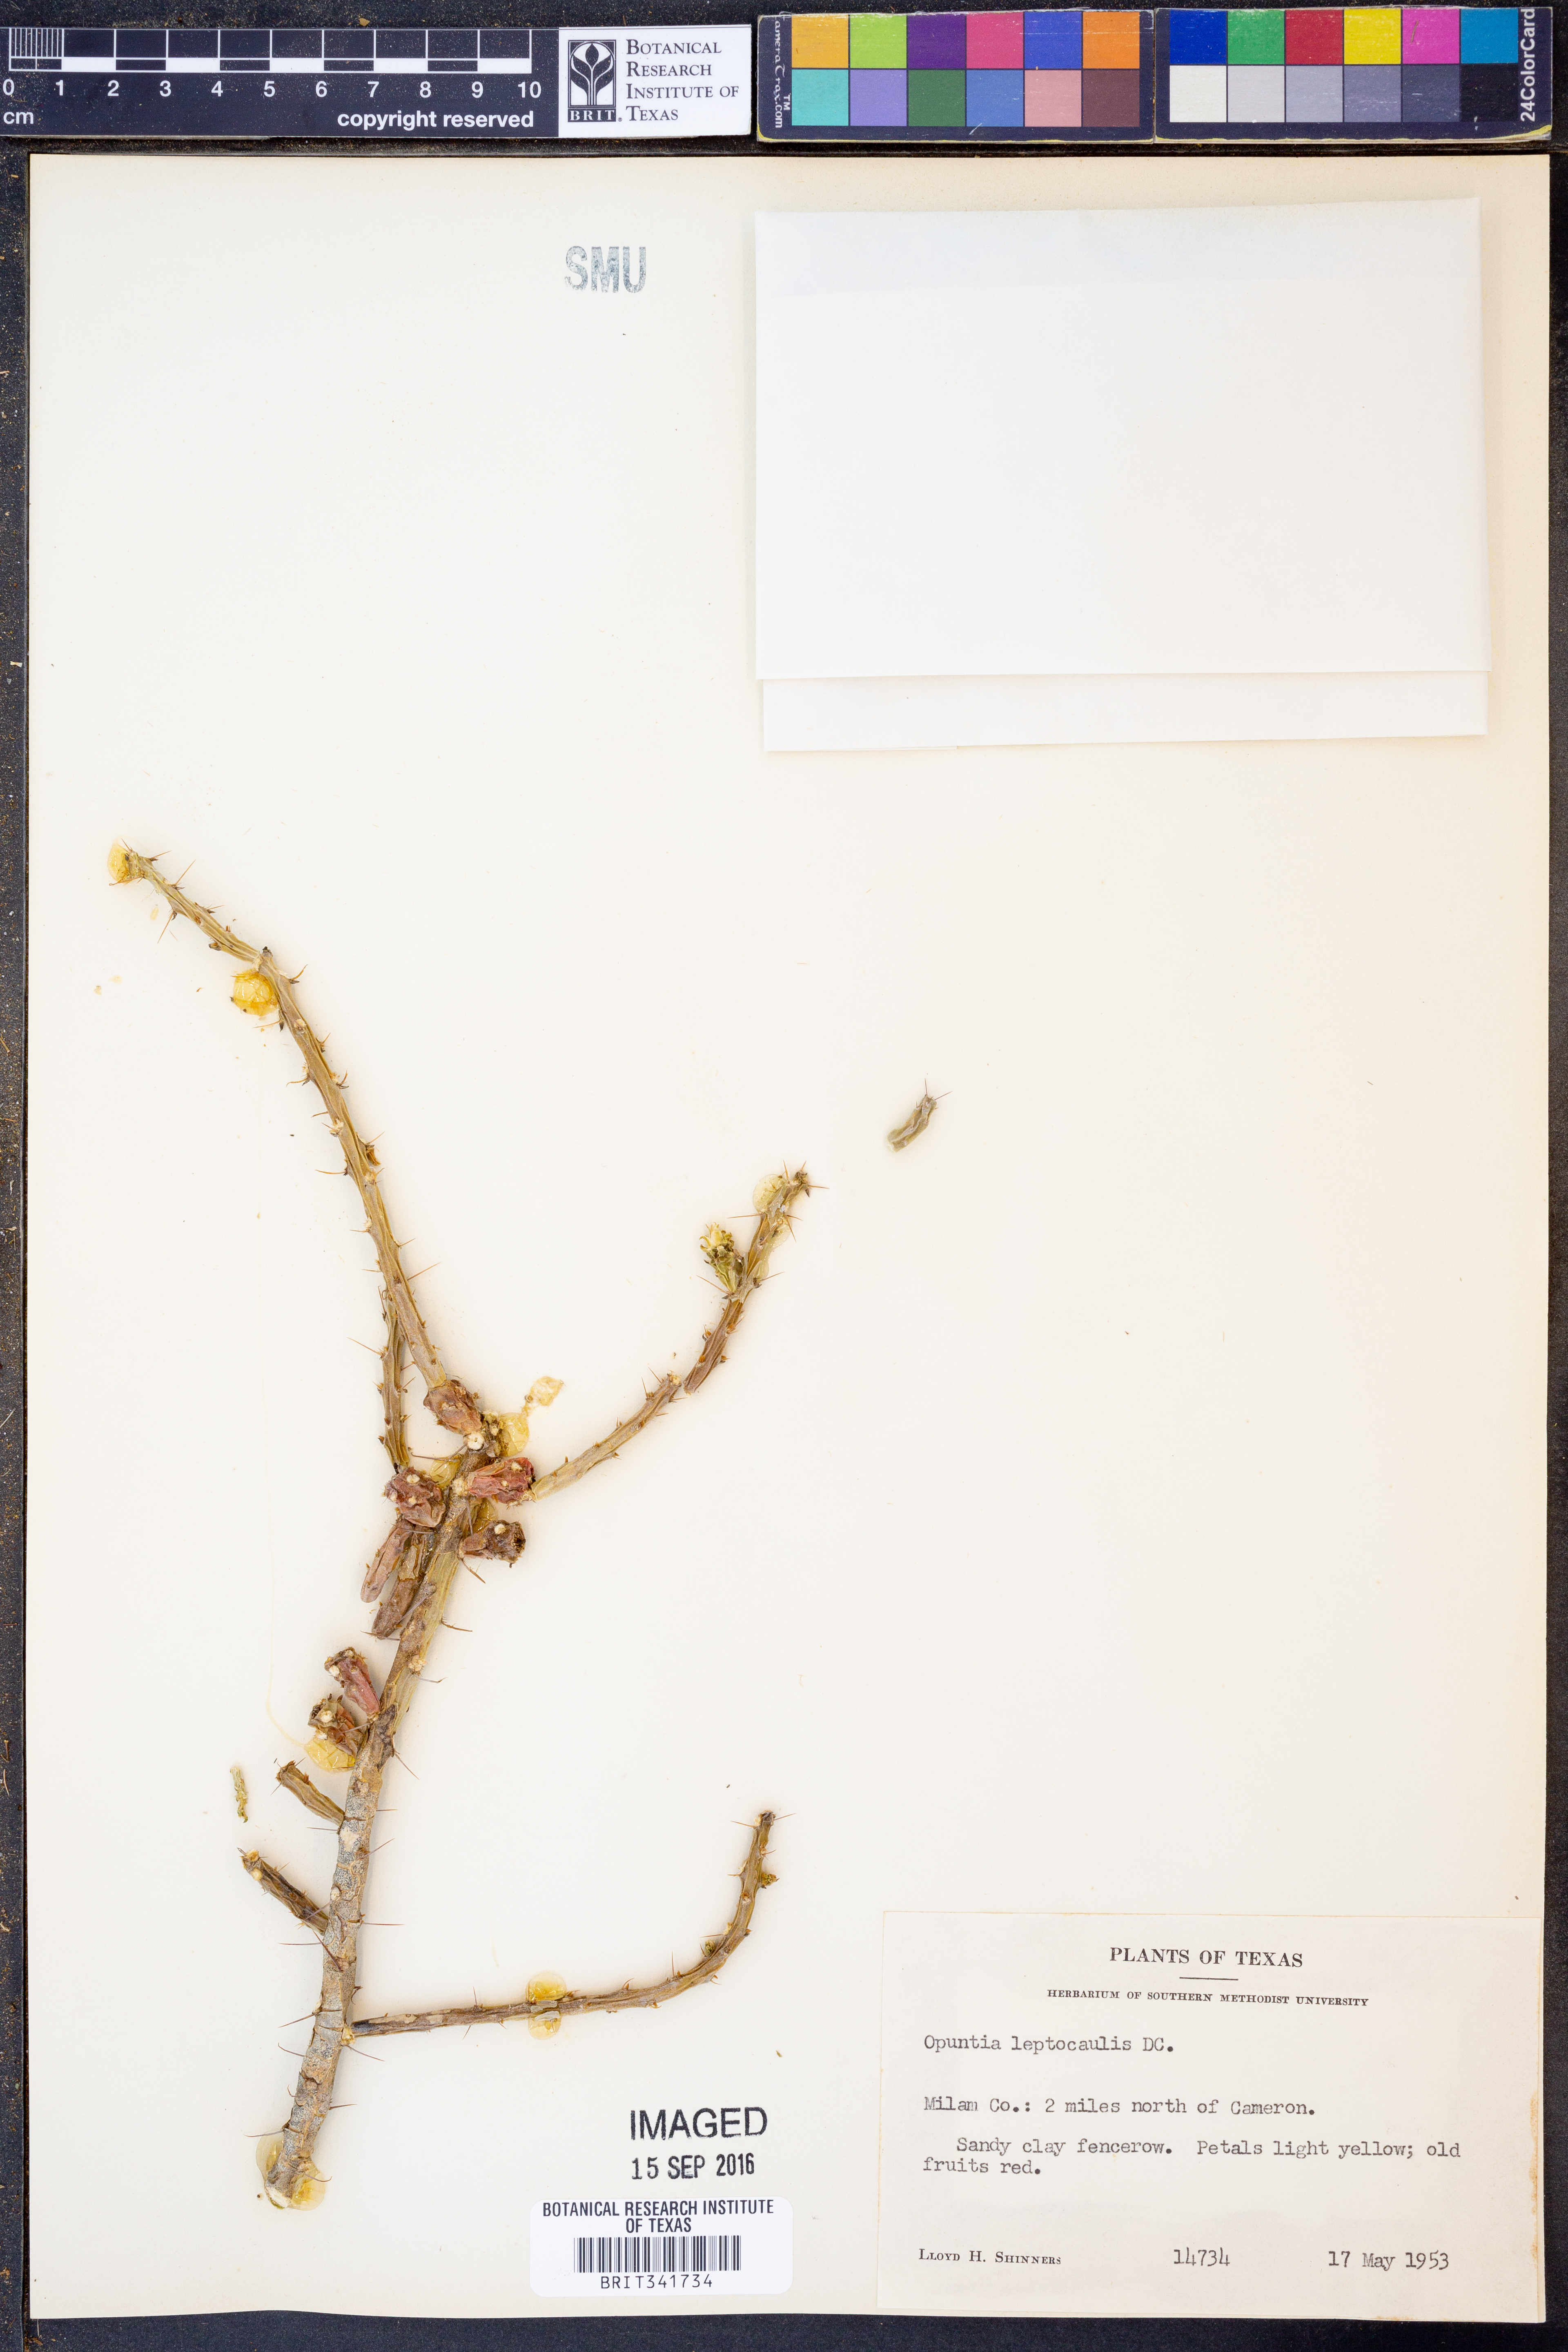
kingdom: Plantae
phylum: Tracheophyta
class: Magnoliopsida
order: Caryophyllales
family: Cactaceae
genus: Cylindropuntia
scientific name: Cylindropuntia leptocaulis
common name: Christmas cactus
